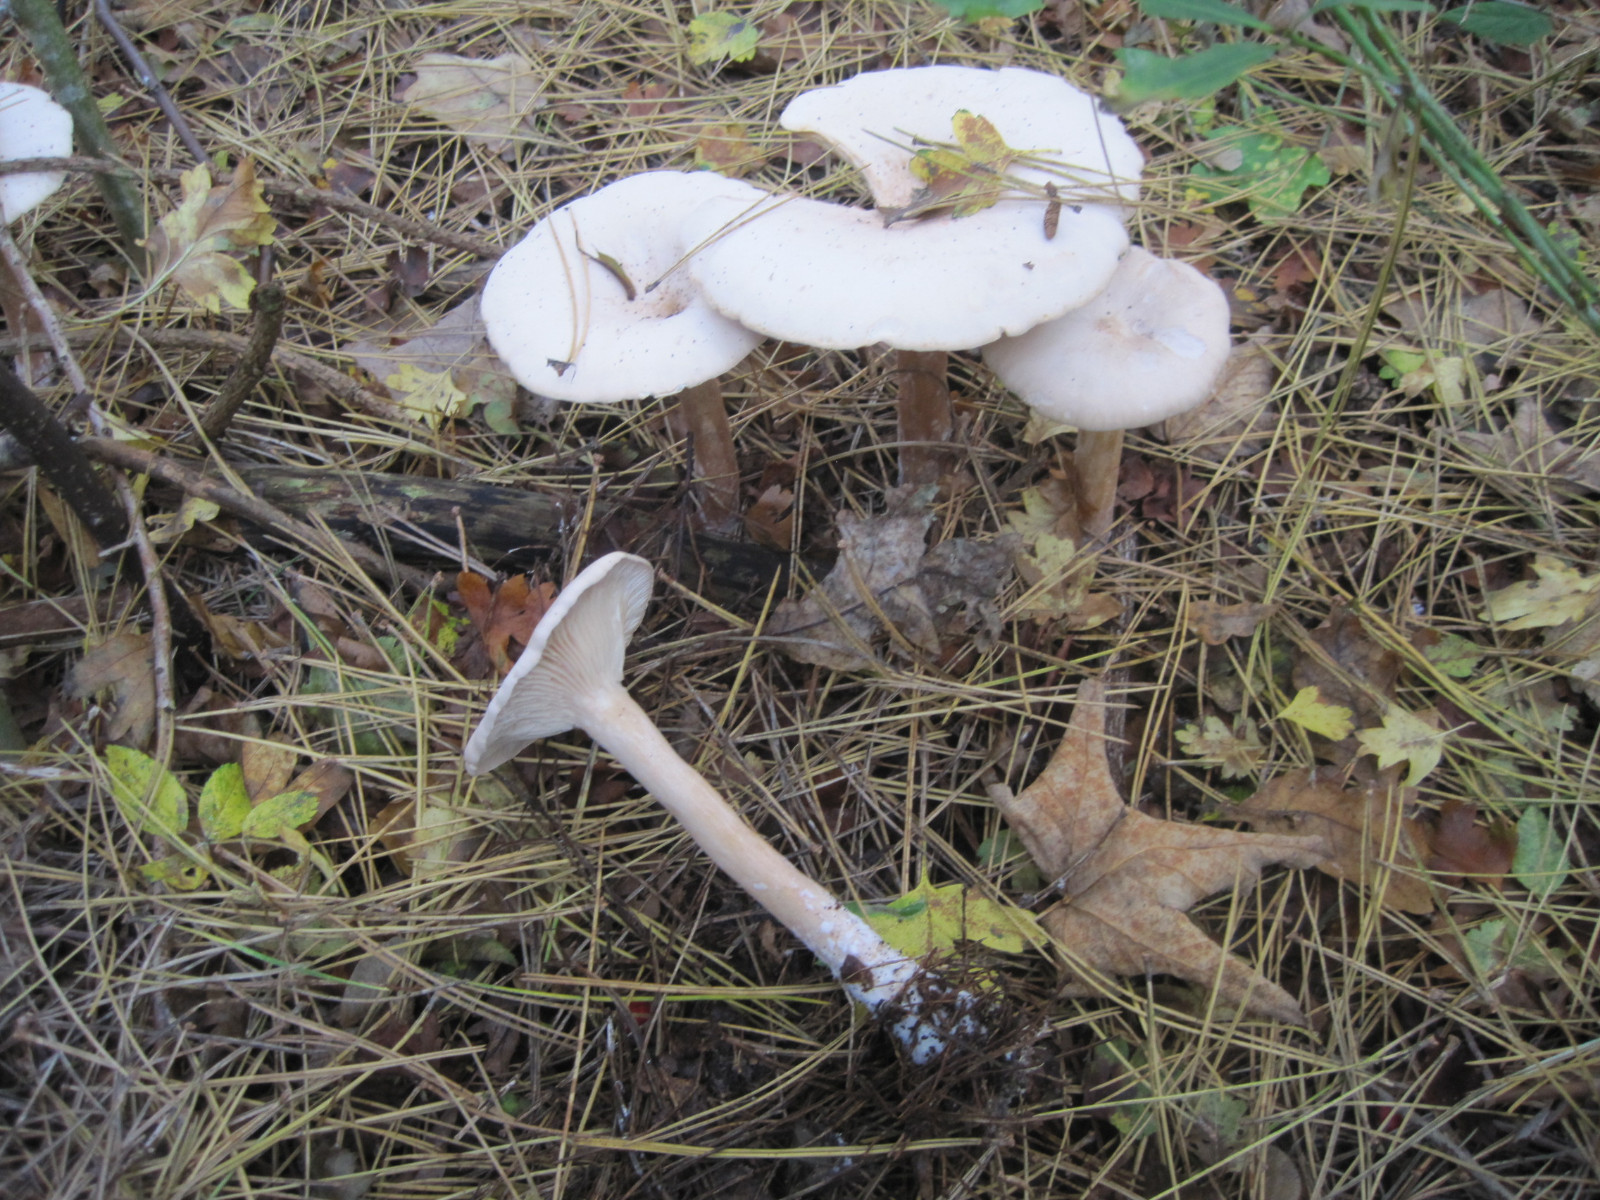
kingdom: Fungi
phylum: Basidiomycota
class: Agaricomycetes
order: Agaricales
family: Tricholomataceae
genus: Infundibulicybe
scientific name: Infundibulicybe geotropa
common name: stor tragthat
